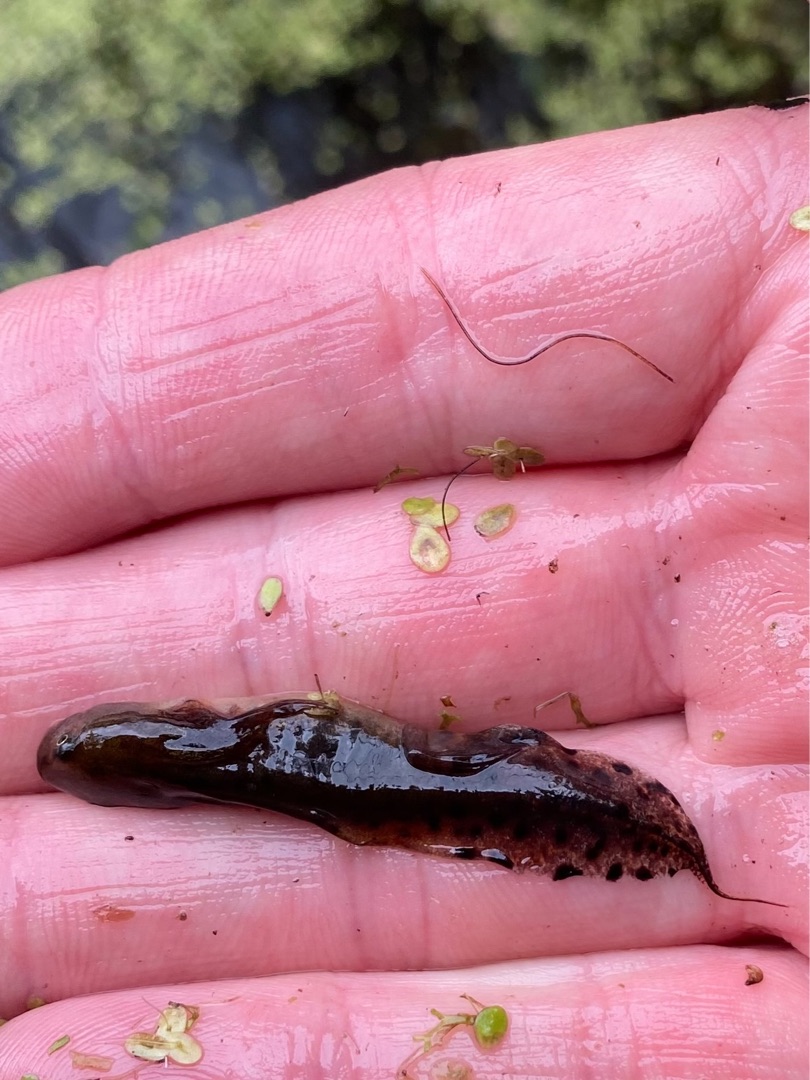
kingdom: Animalia
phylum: Chordata
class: Amphibia
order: Caudata
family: Salamandridae
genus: Triturus
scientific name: Triturus cristatus
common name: Stor vandsalamander
